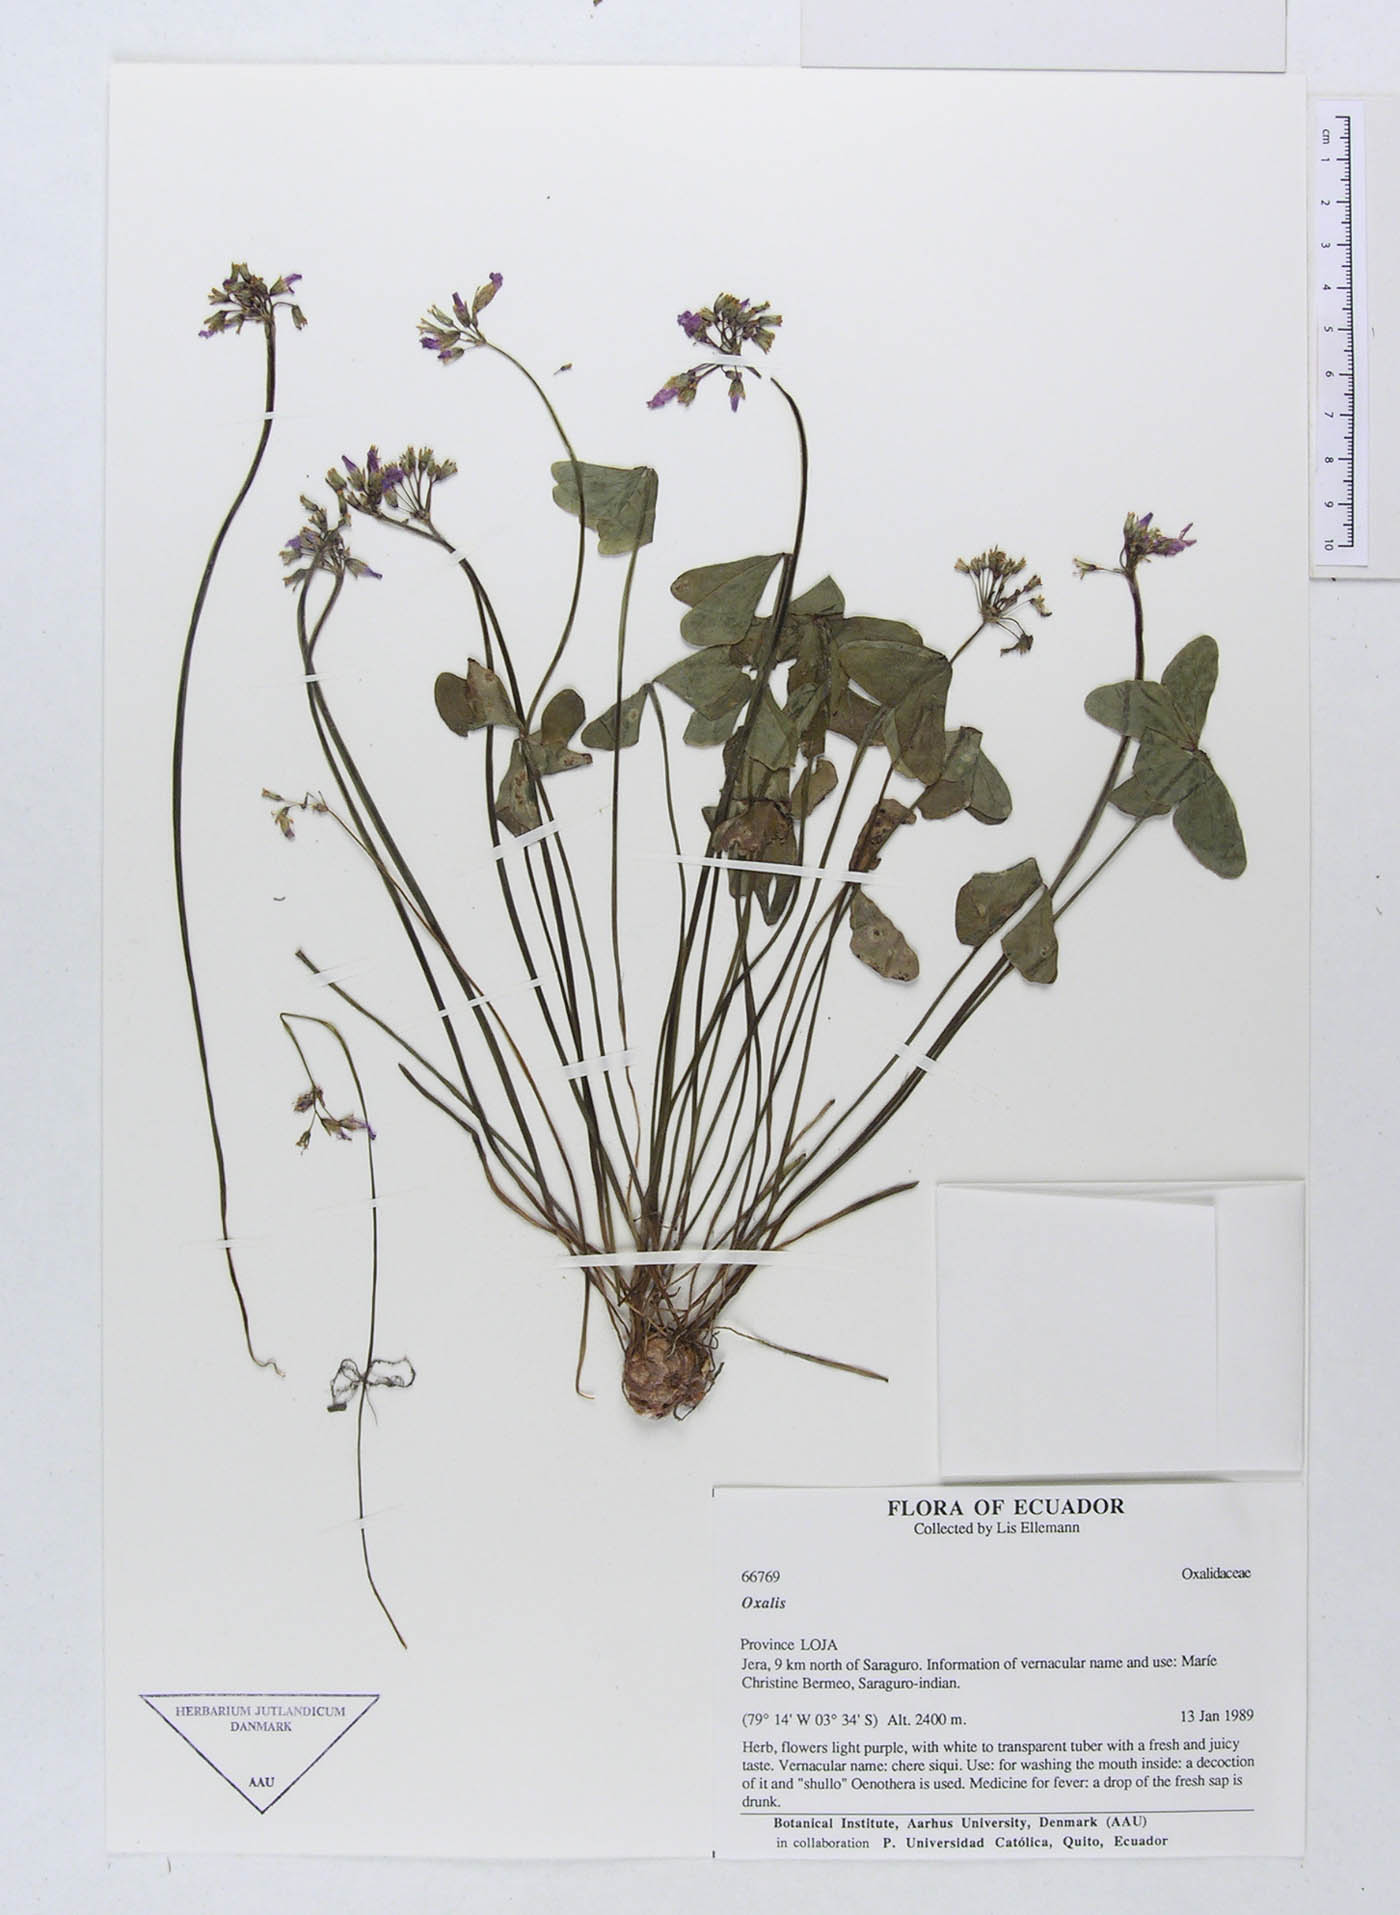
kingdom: Plantae
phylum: Tracheophyta
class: Magnoliopsida
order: Oxalidales
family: Oxalidaceae
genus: Oxalis
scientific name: Oxalis
